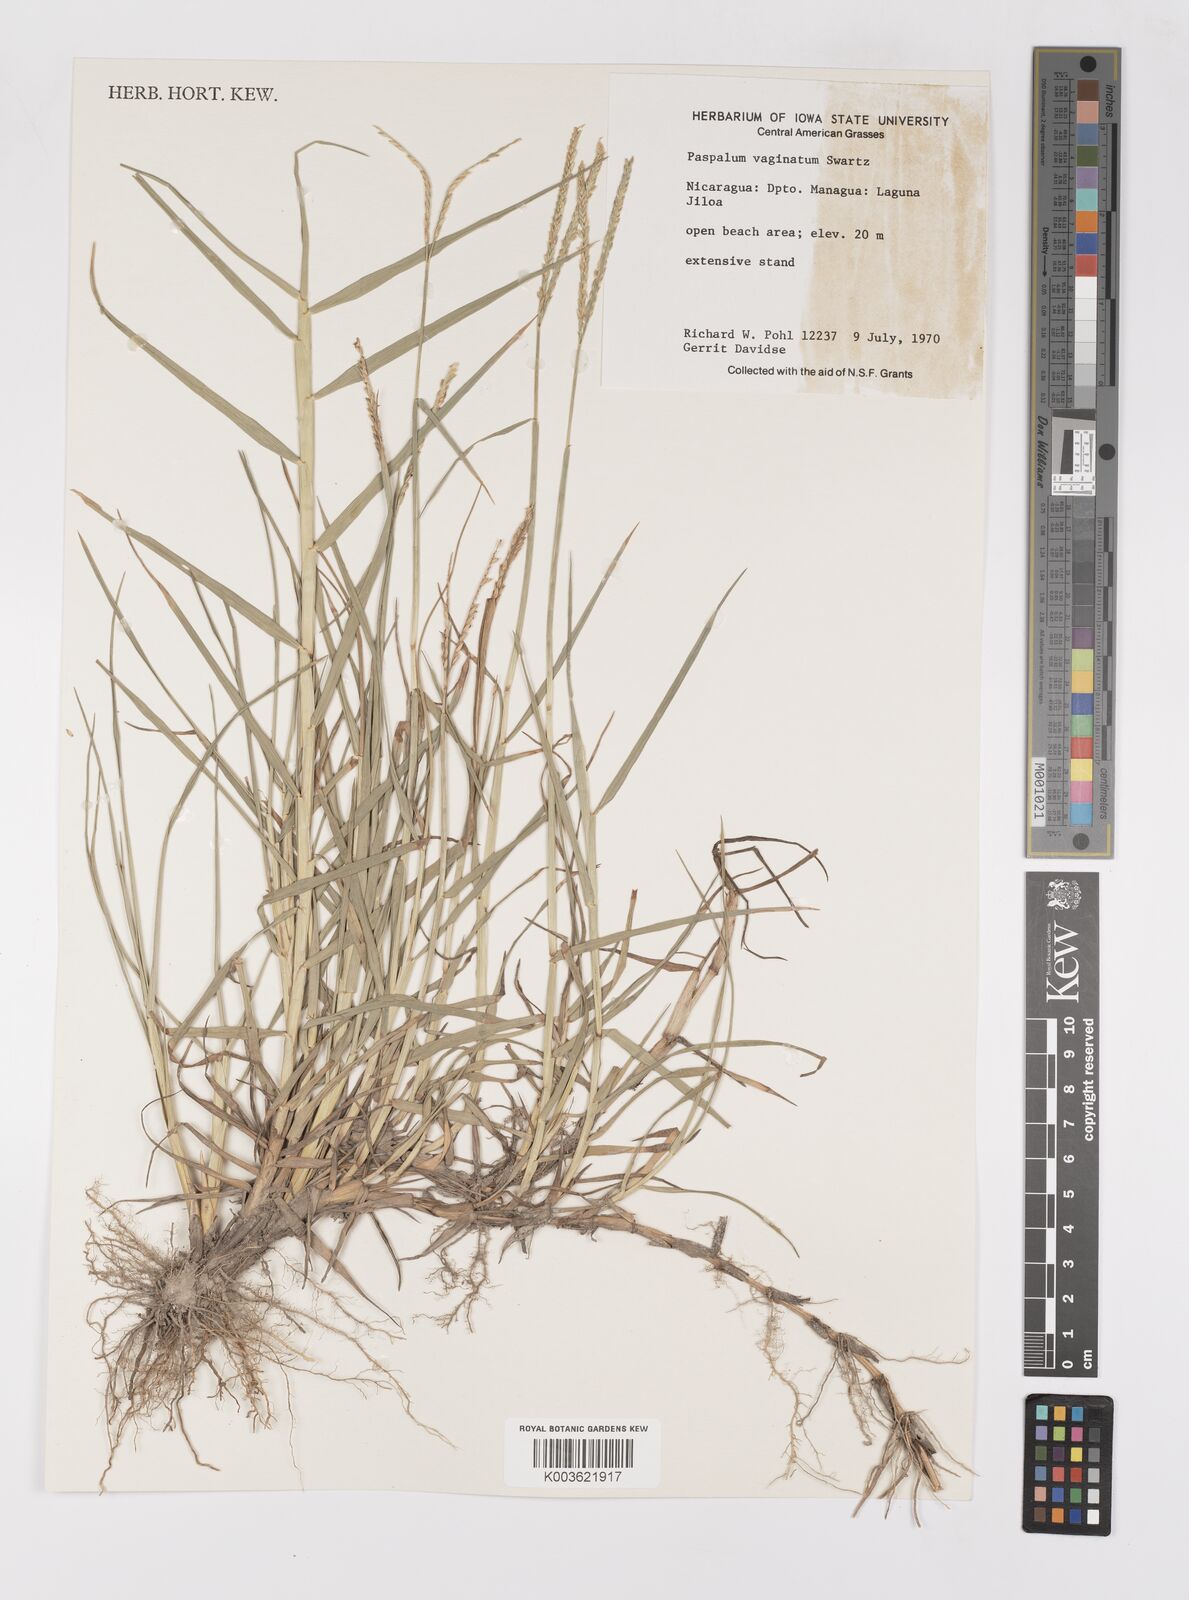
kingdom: Plantae
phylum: Tracheophyta
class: Liliopsida
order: Poales
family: Poaceae
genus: Paspalum
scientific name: Paspalum vaginatum
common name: Seashore paspalum
